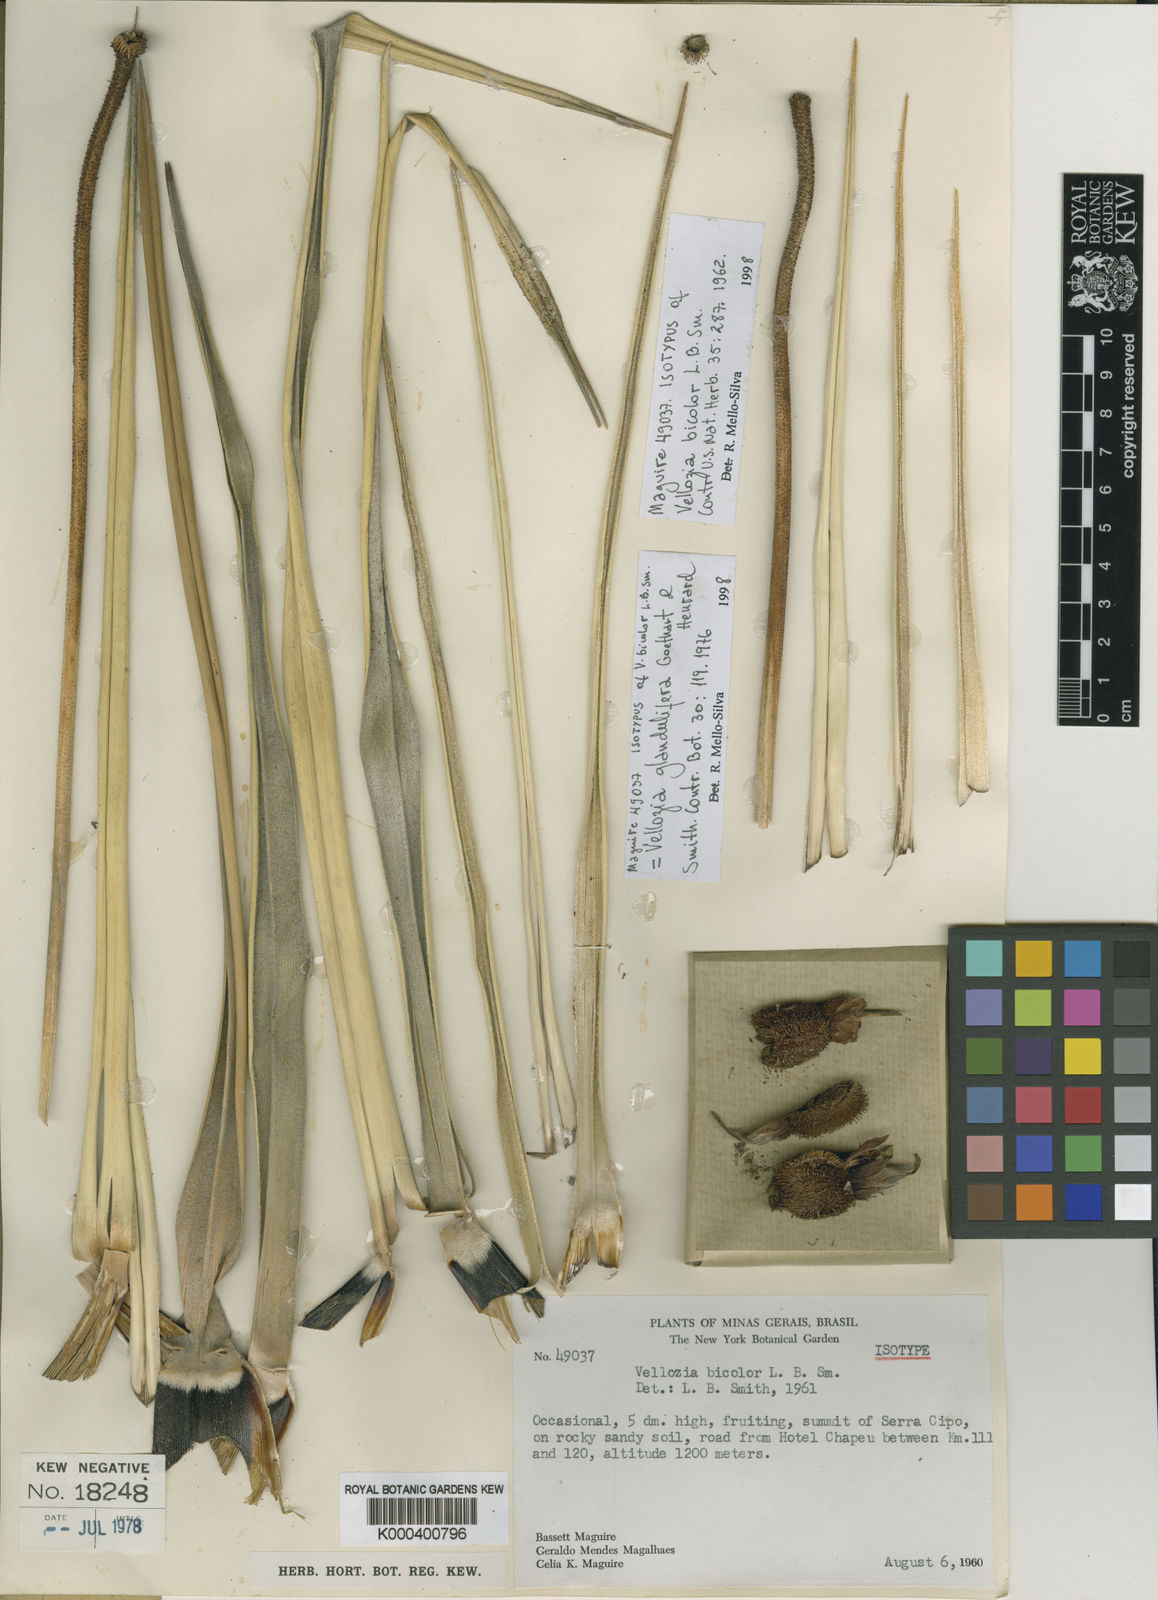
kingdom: Plantae
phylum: Tracheophyta
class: Liliopsida
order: Pandanales
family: Velloziaceae
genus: Vellozia
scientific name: Vellozia glandulifera
